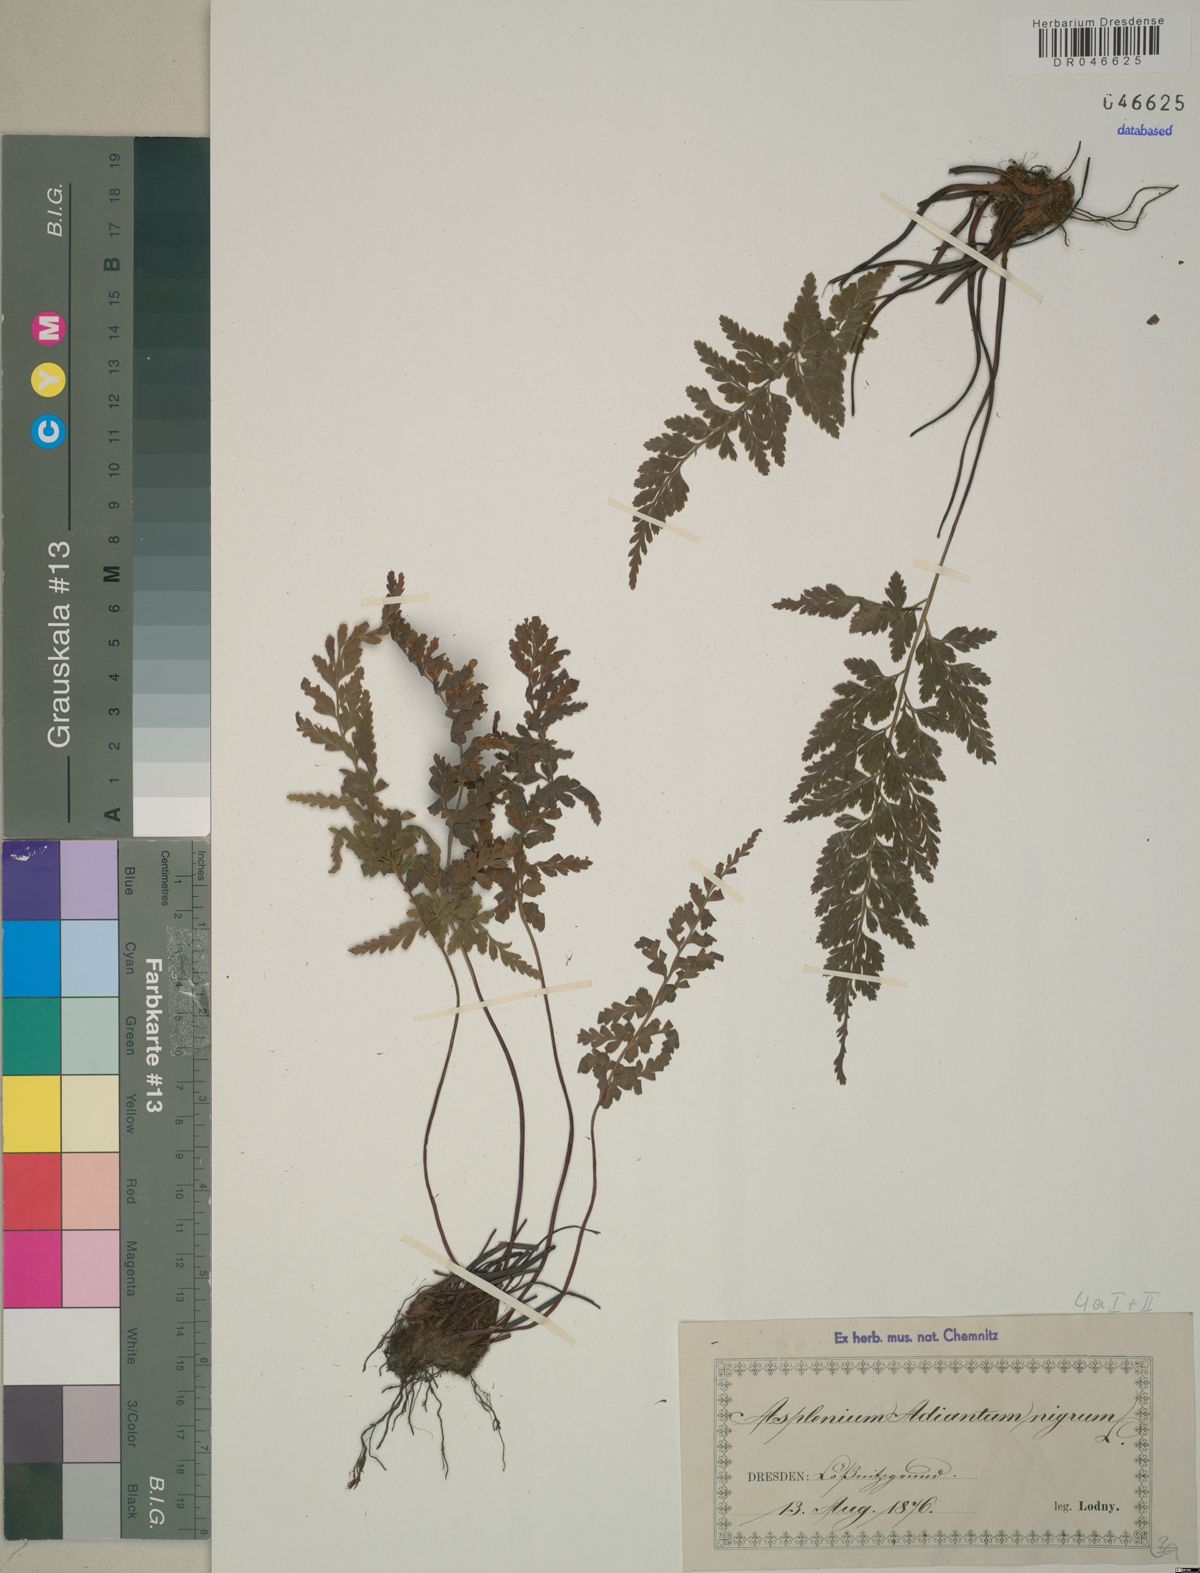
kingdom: Plantae
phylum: Tracheophyta
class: Polypodiopsida
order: Polypodiales
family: Aspleniaceae
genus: Asplenium
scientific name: Asplenium adiantum-nigrum
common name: Black spleenwort
